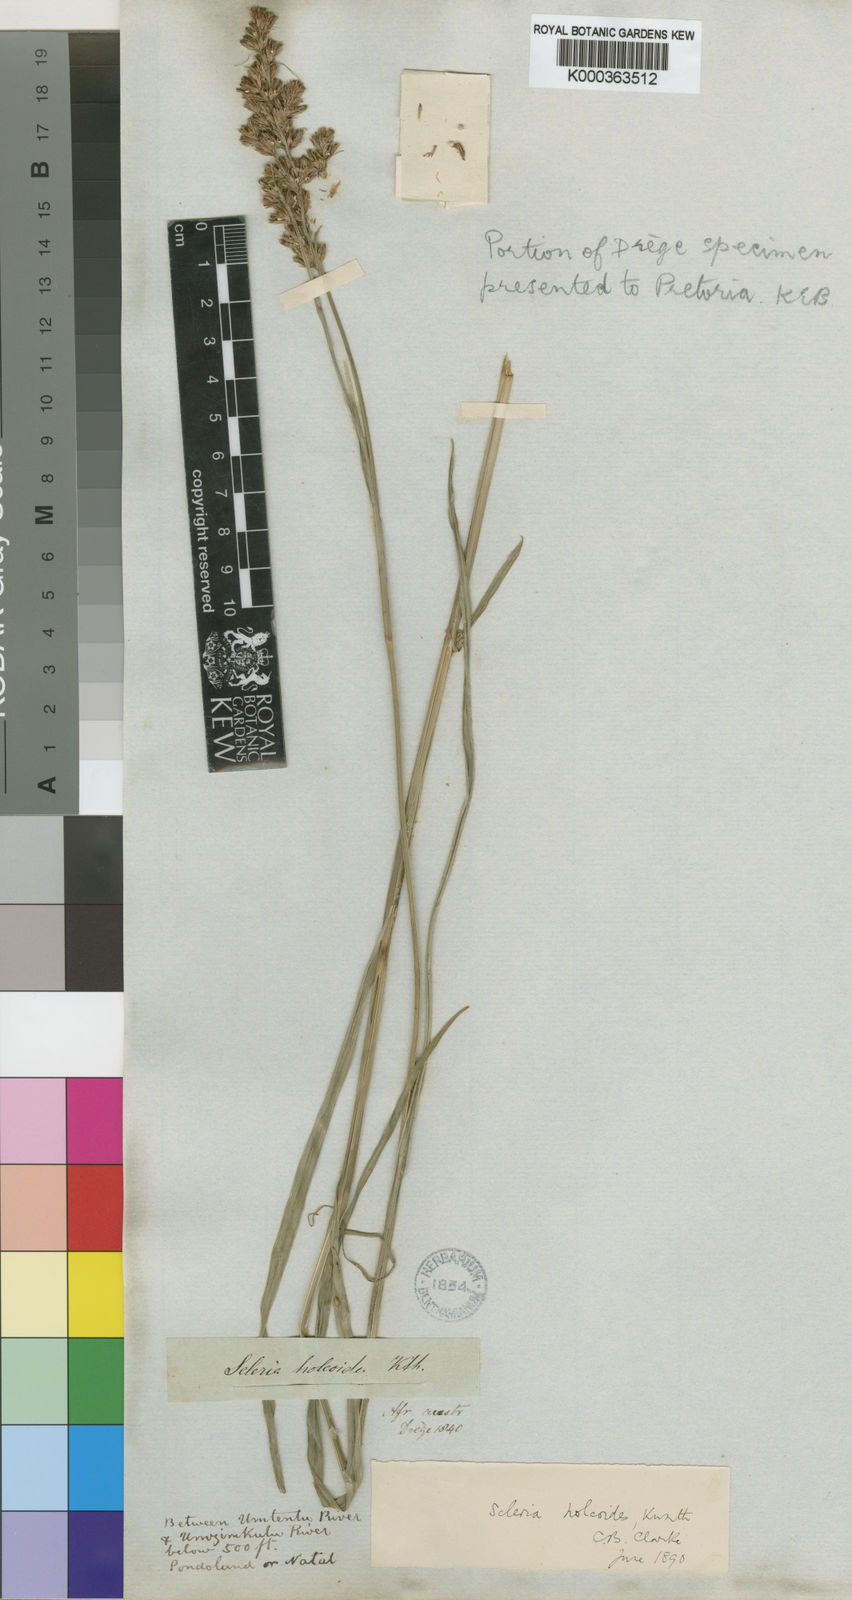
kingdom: Plantae
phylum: Tracheophyta
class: Liliopsida
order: Poales
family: Cyperaceae
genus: Scleria
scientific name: Scleria dregeana
